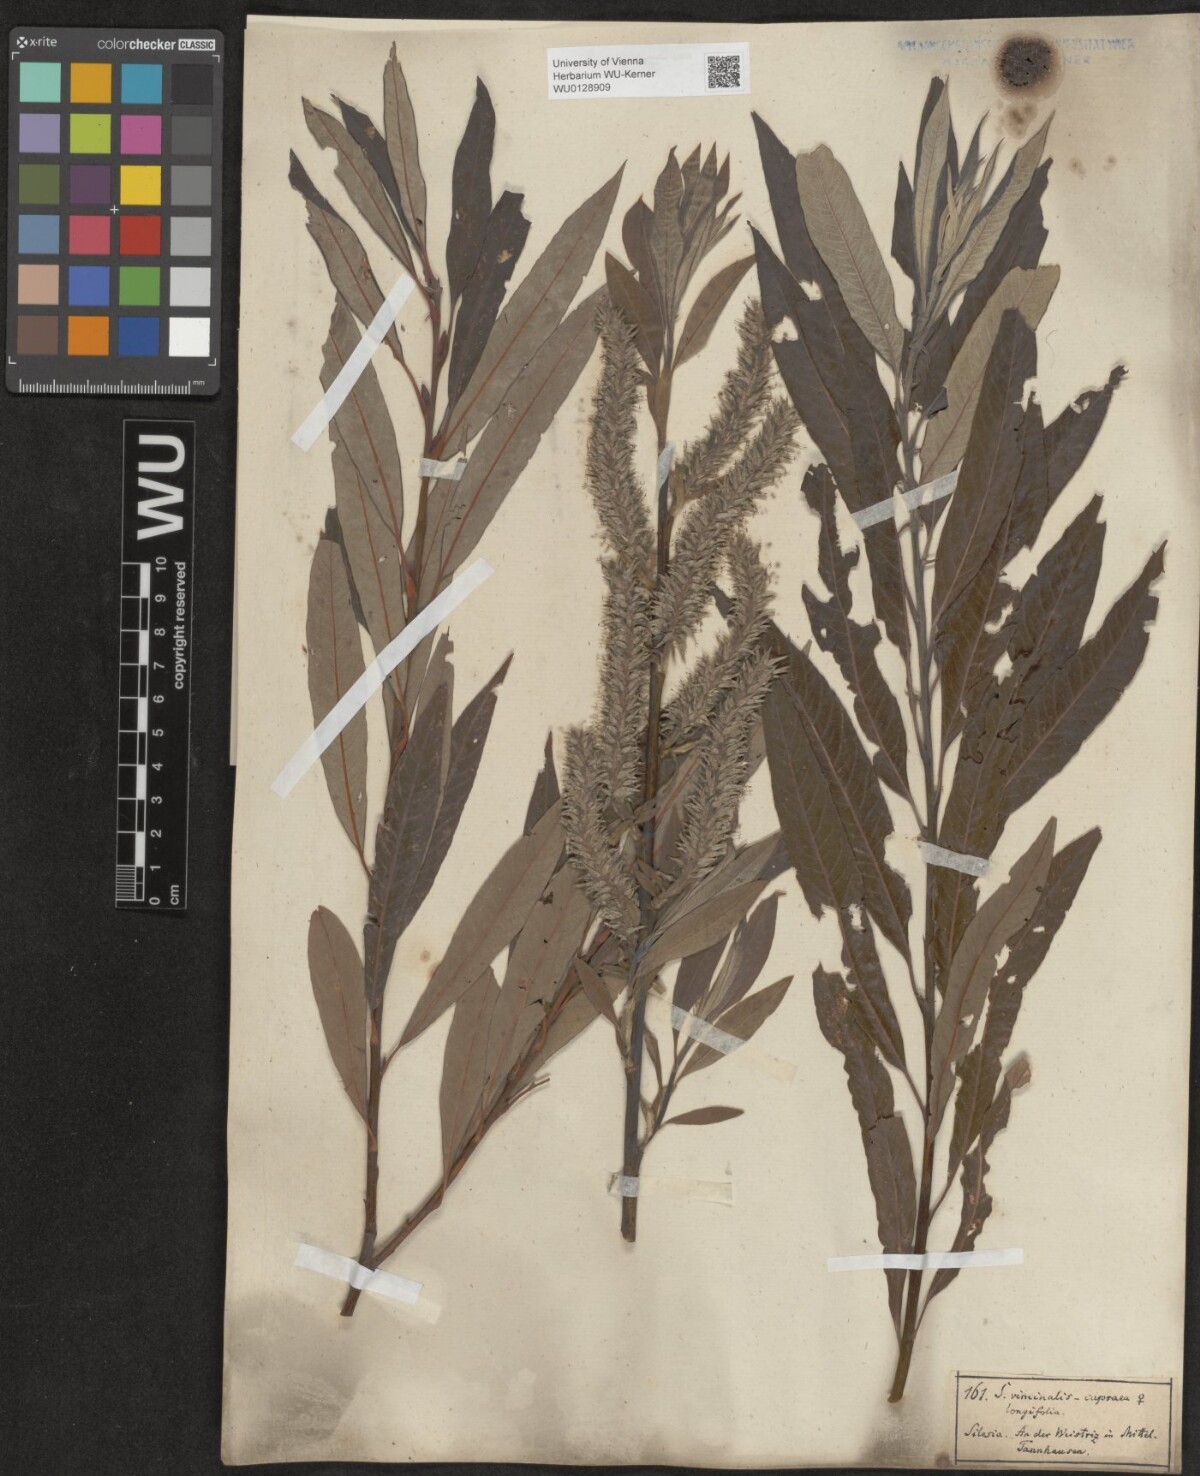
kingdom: Plantae
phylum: Tracheophyta
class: Magnoliopsida
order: Malpighiales
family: Salicaceae
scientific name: Salicaceae
